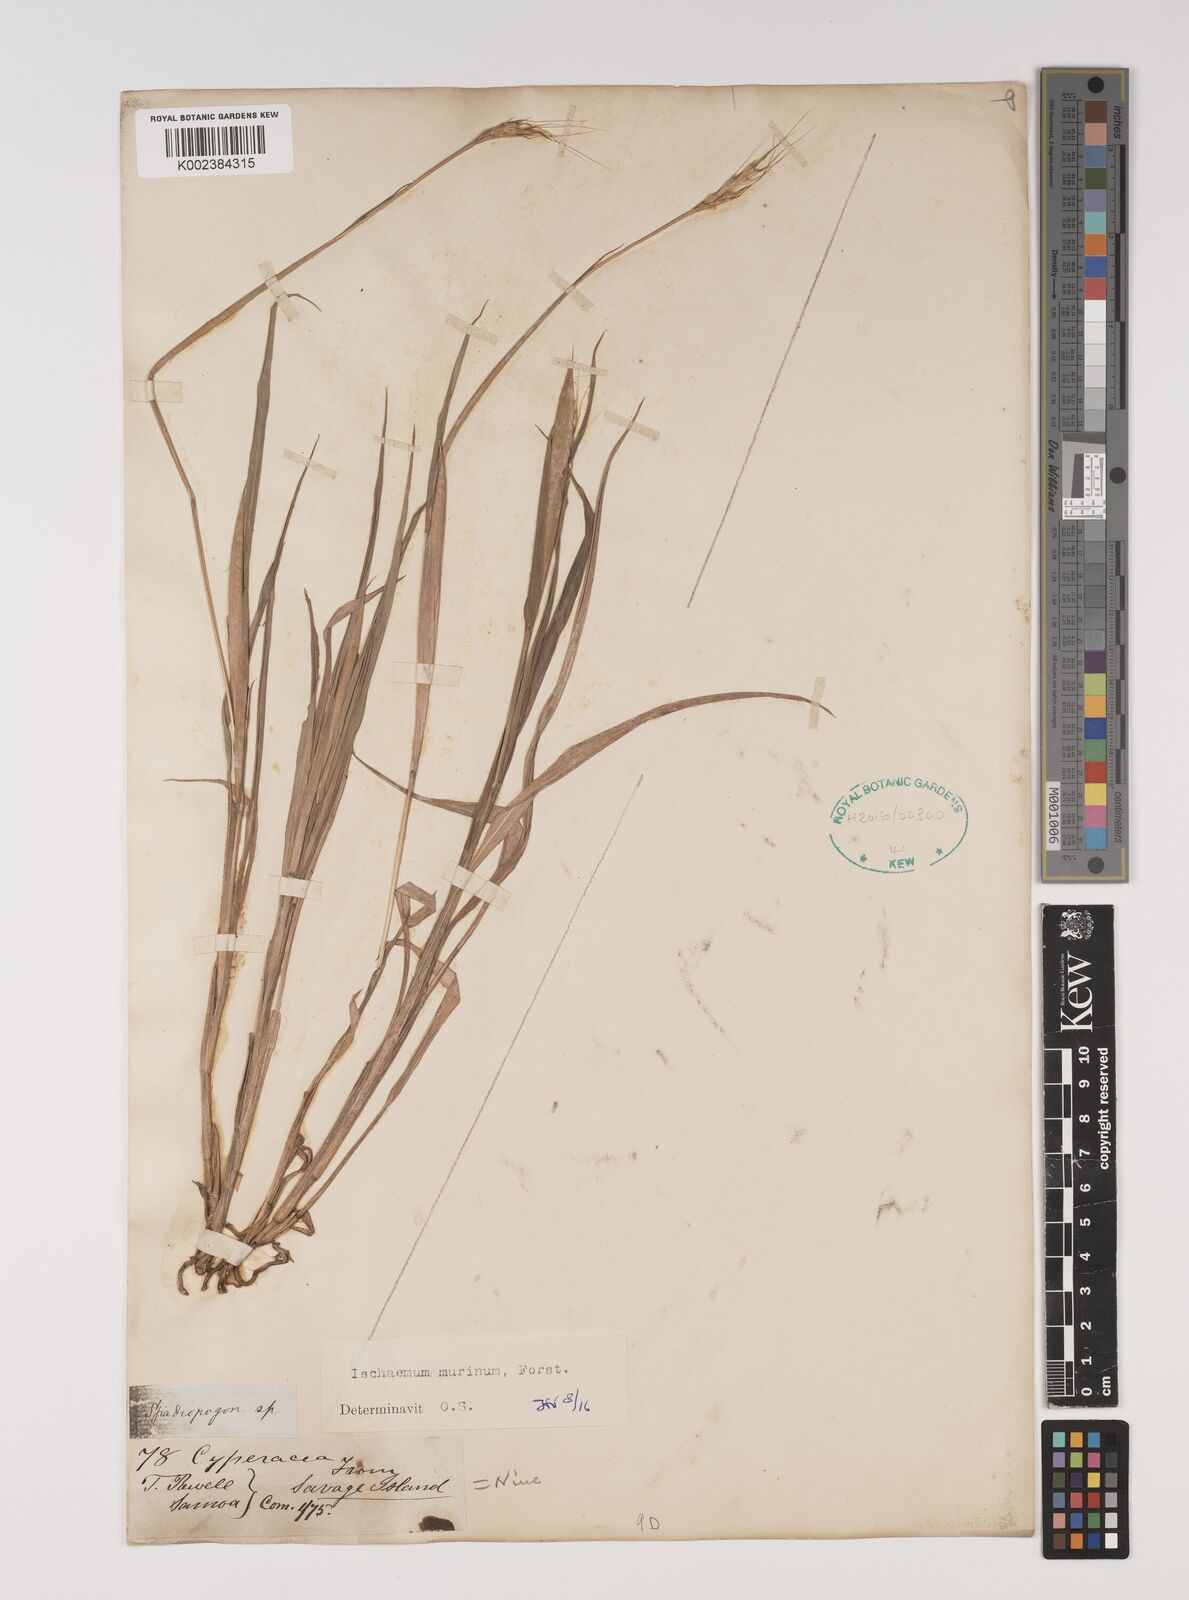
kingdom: Plantae
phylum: Tracheophyta
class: Liliopsida
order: Poales
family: Poaceae
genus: Ischaemum
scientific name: Ischaemum murinum
